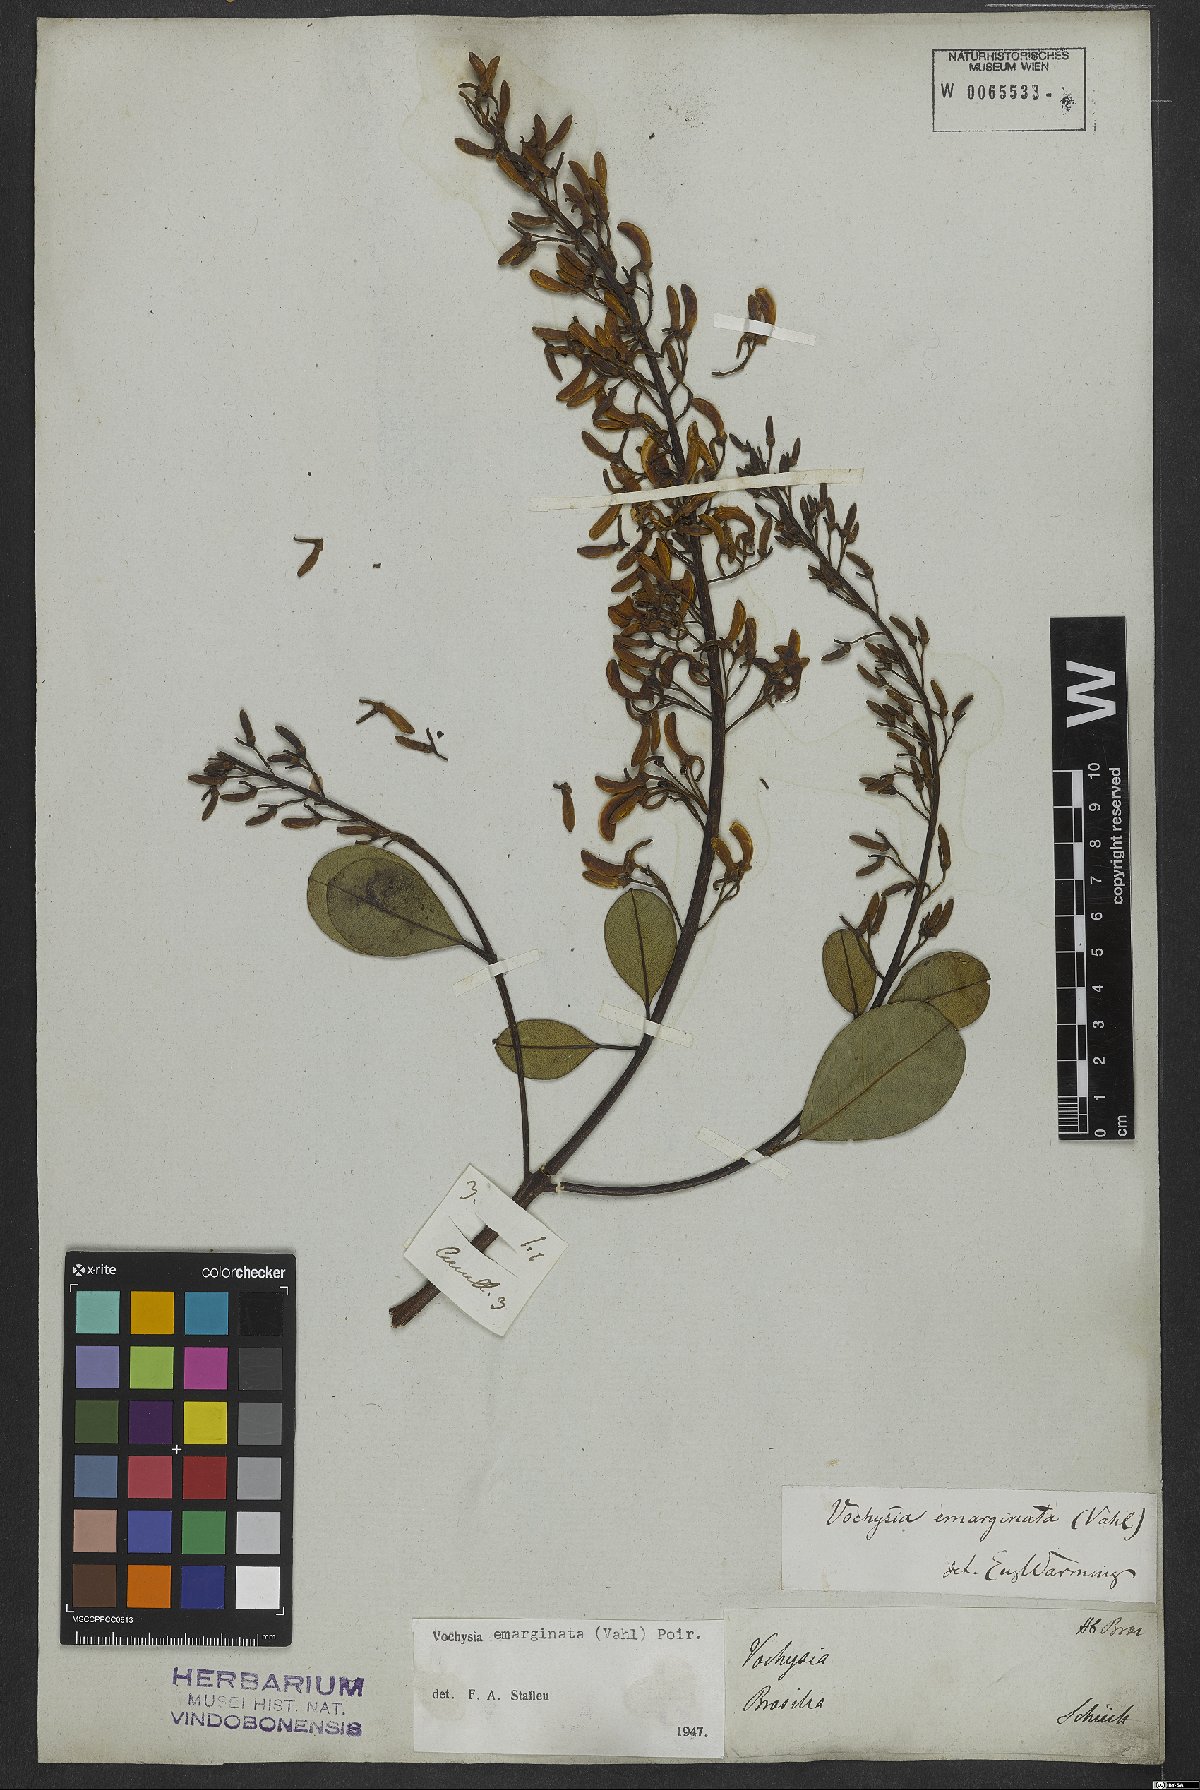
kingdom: Plantae
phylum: Tracheophyta
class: Magnoliopsida
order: Myrtales
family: Vochysiaceae
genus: Vochysia
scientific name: Vochysia emarginata
